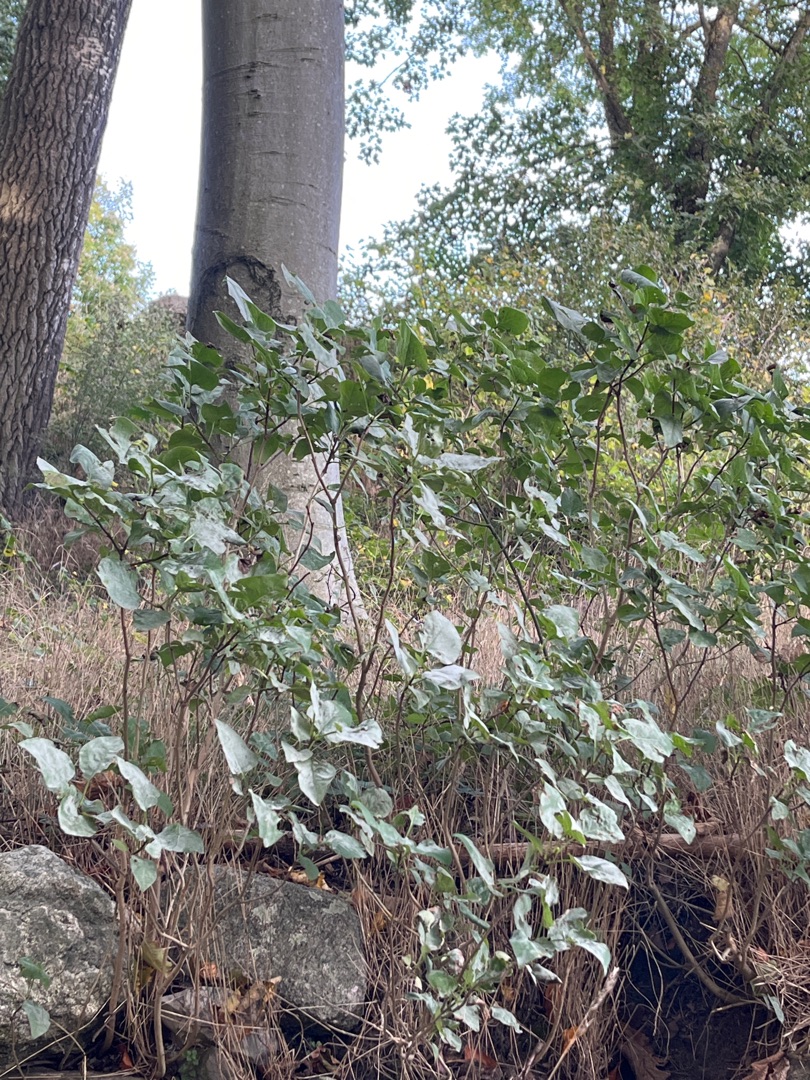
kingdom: Plantae
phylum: Tracheophyta
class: Magnoliopsida
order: Lamiales
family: Oleaceae
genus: Syringa
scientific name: Syringa vulgaris
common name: Syren
